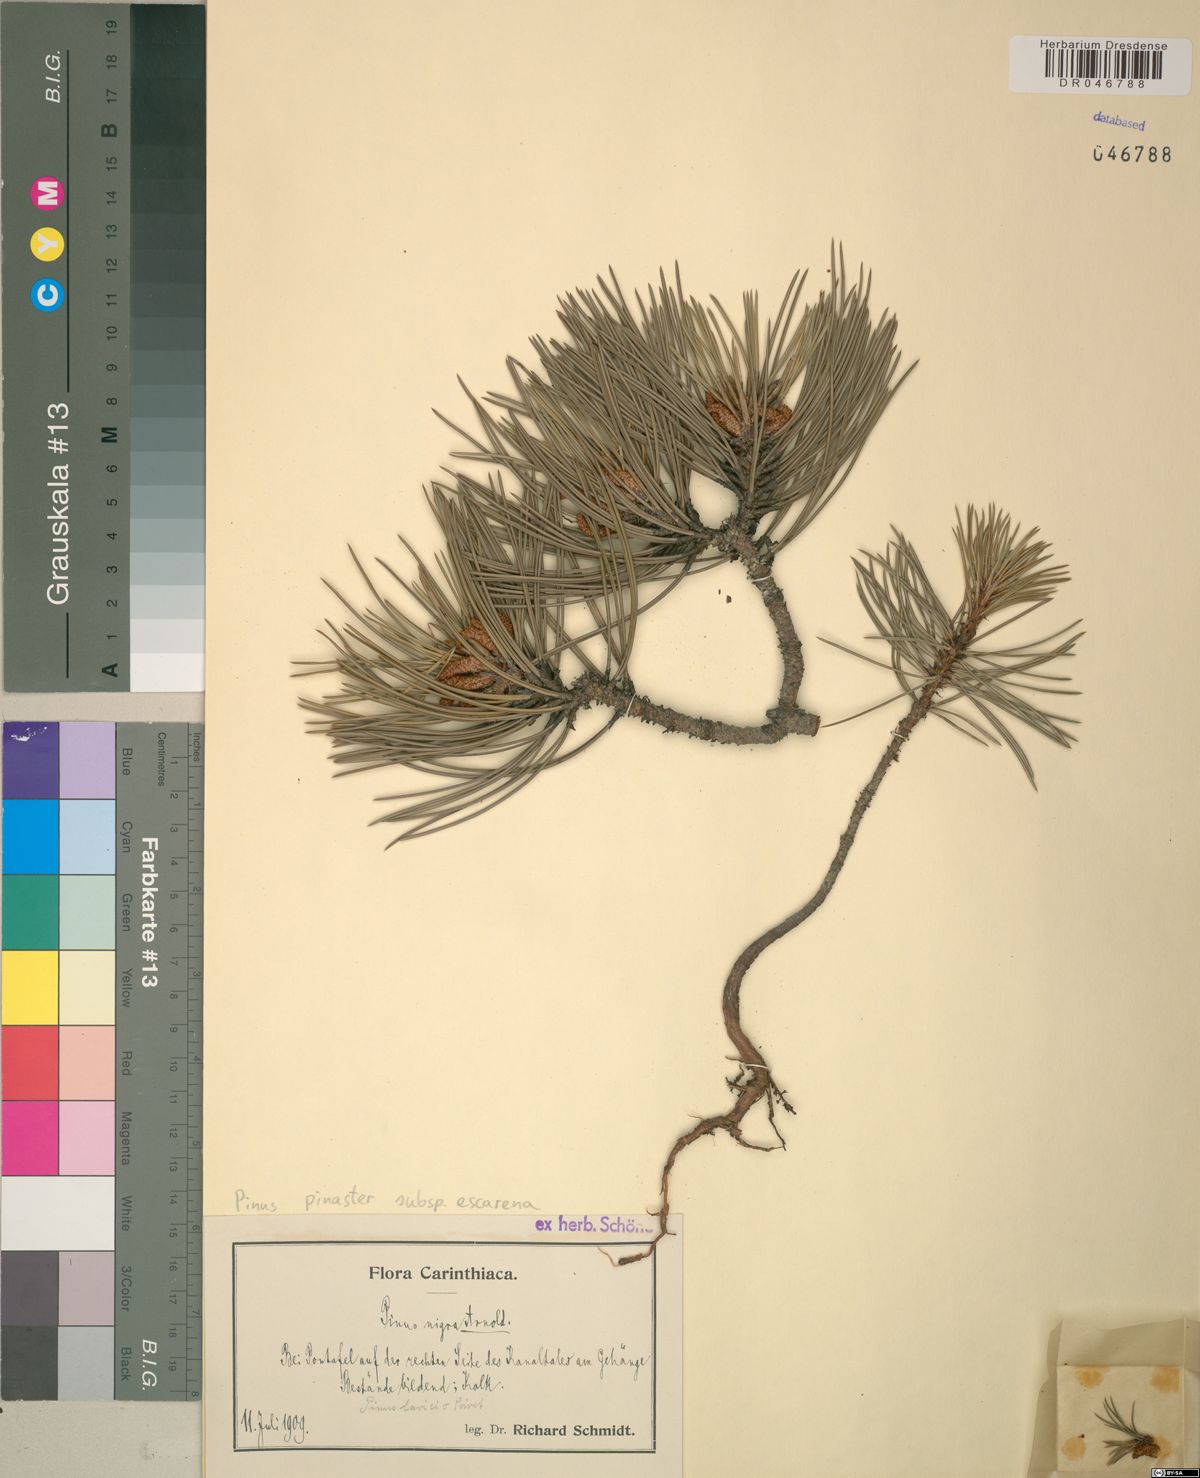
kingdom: Plantae
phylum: Tracheophyta
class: Pinopsida
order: Pinales
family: Pinaceae
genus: Pinus
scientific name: Pinus pinaster
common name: Maritime pine
